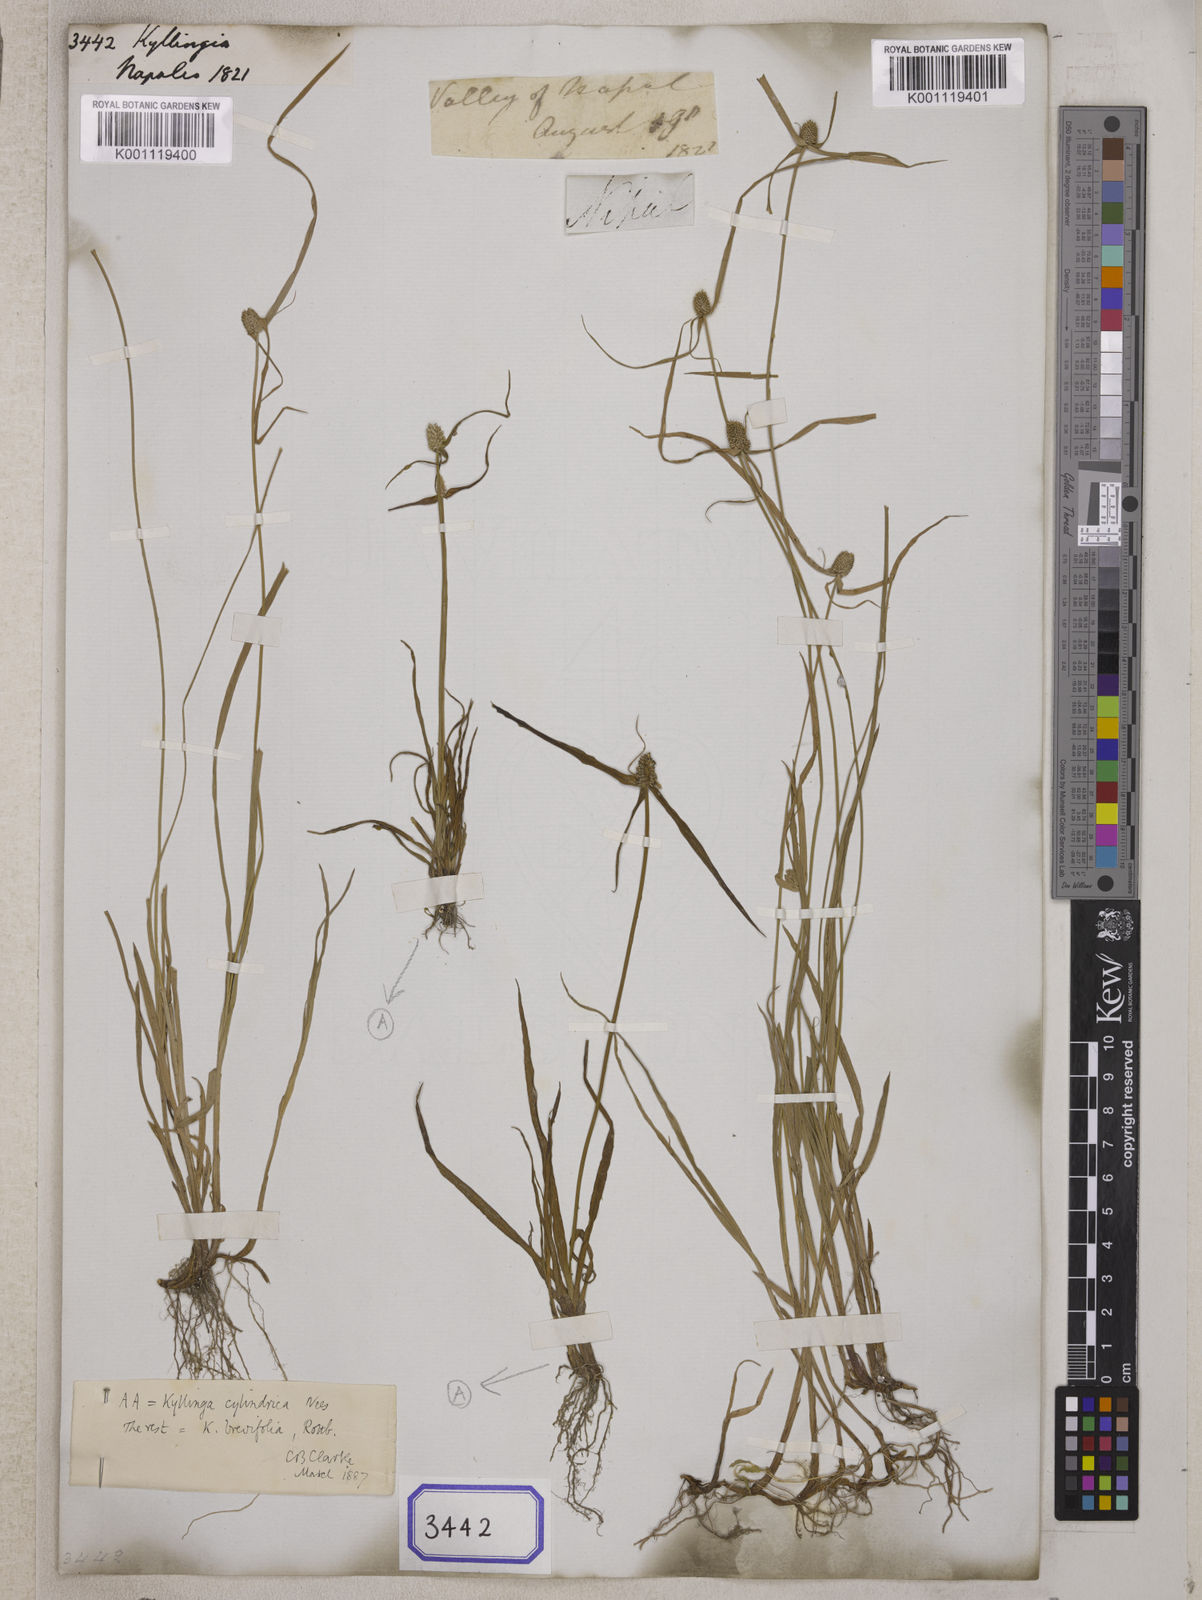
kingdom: Plantae
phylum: Tracheophyta
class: Liliopsida
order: Poales
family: Cyperaceae
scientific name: Cyperaceae
